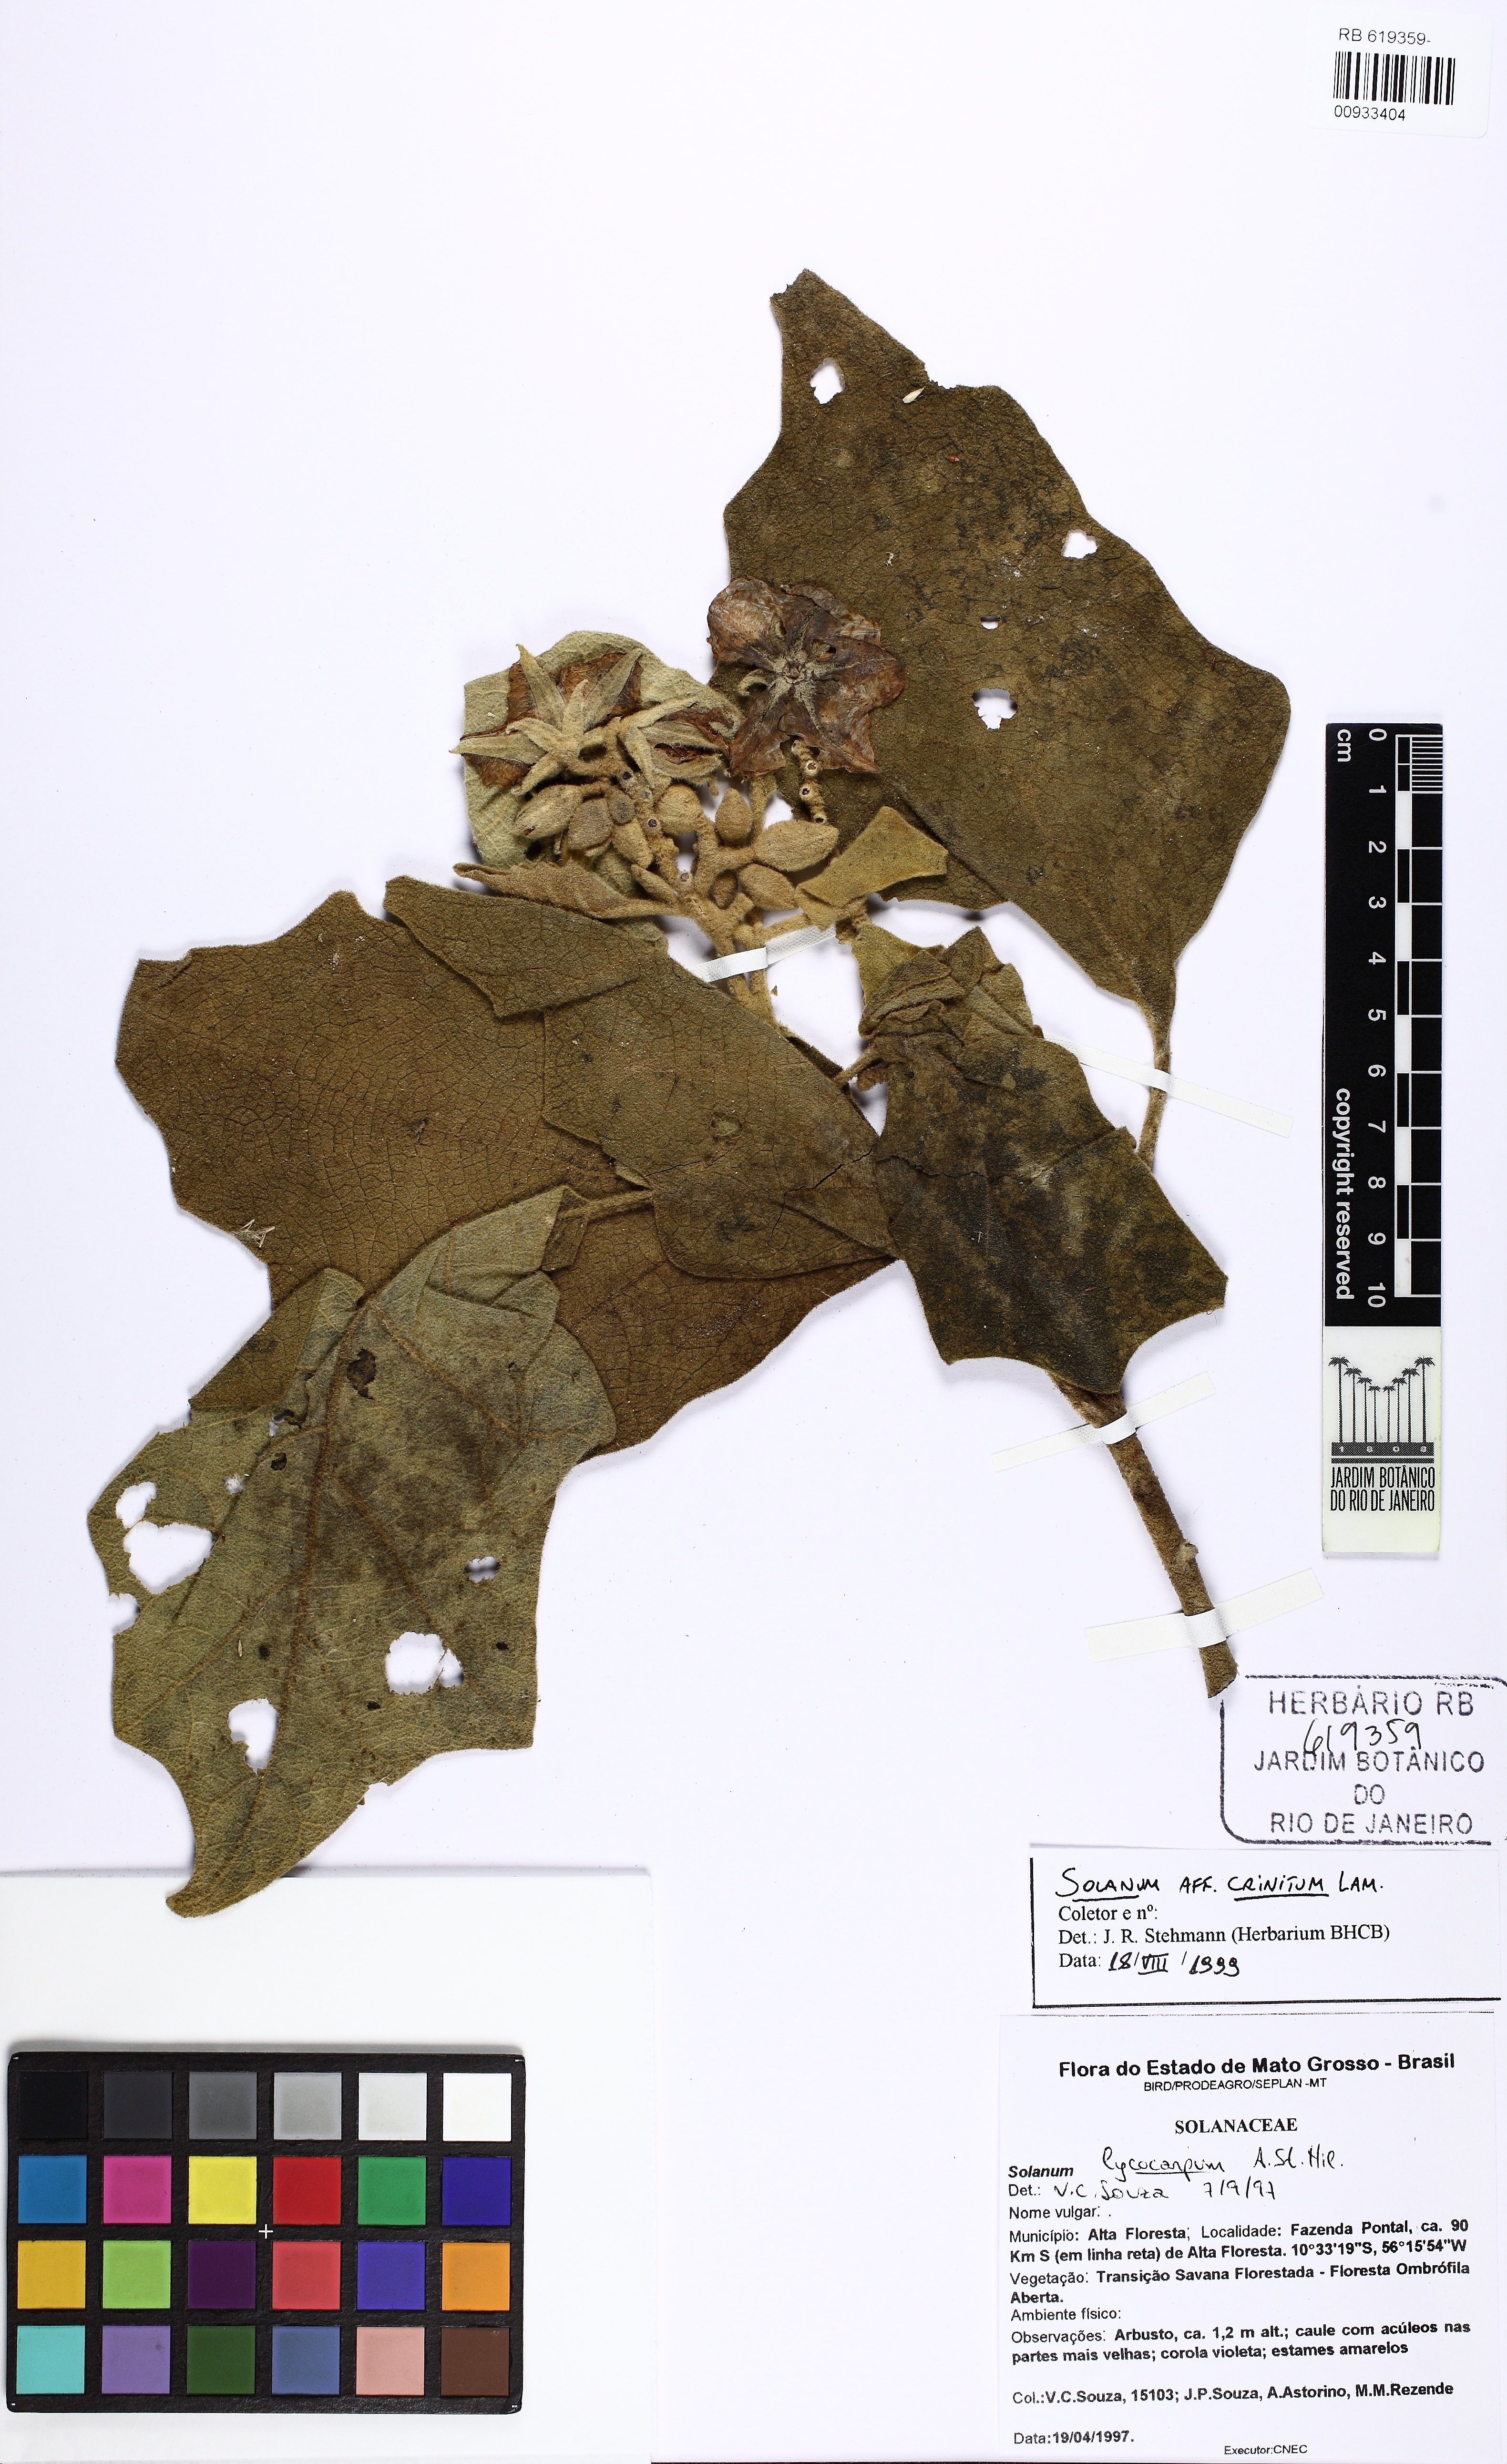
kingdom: Plantae
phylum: Tracheophyta
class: Magnoliopsida
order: Solanales
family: Solanaceae
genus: Solanum
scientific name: Solanum crinitum
